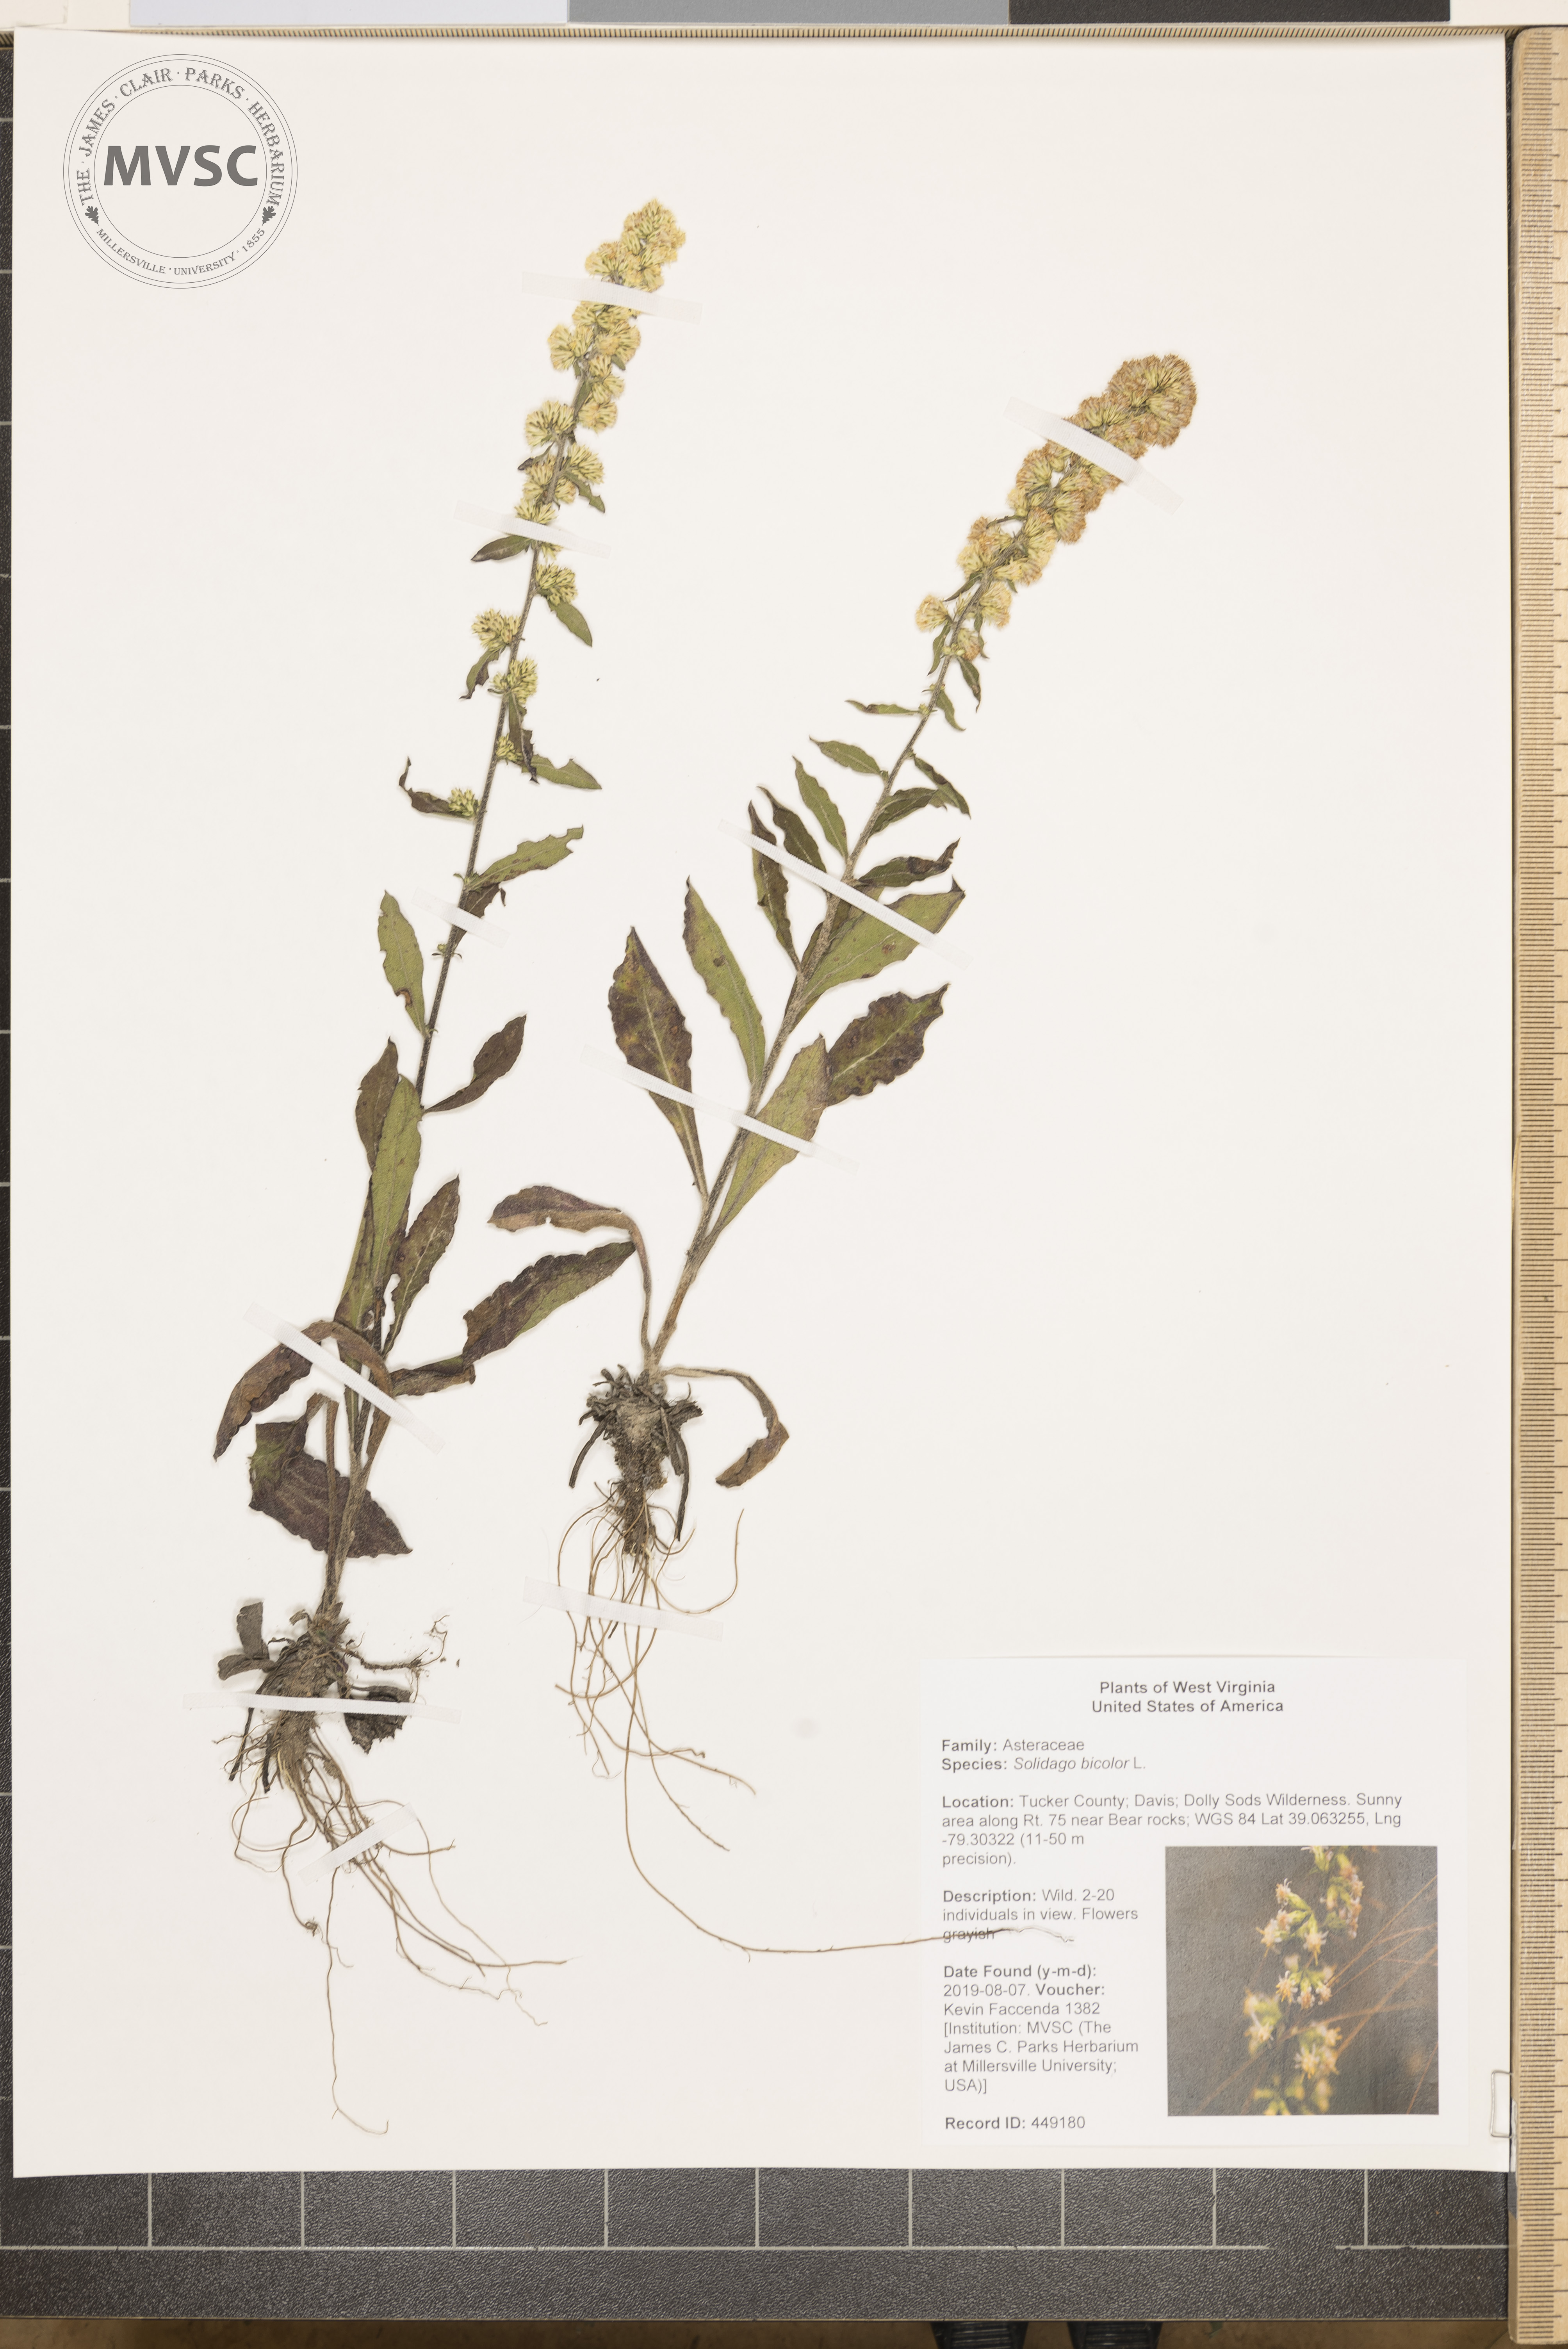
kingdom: Plantae
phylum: Tracheophyta
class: Magnoliopsida
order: Asterales
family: Asteraceae
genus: Solidago
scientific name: Solidago bicolor
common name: Silverrod
